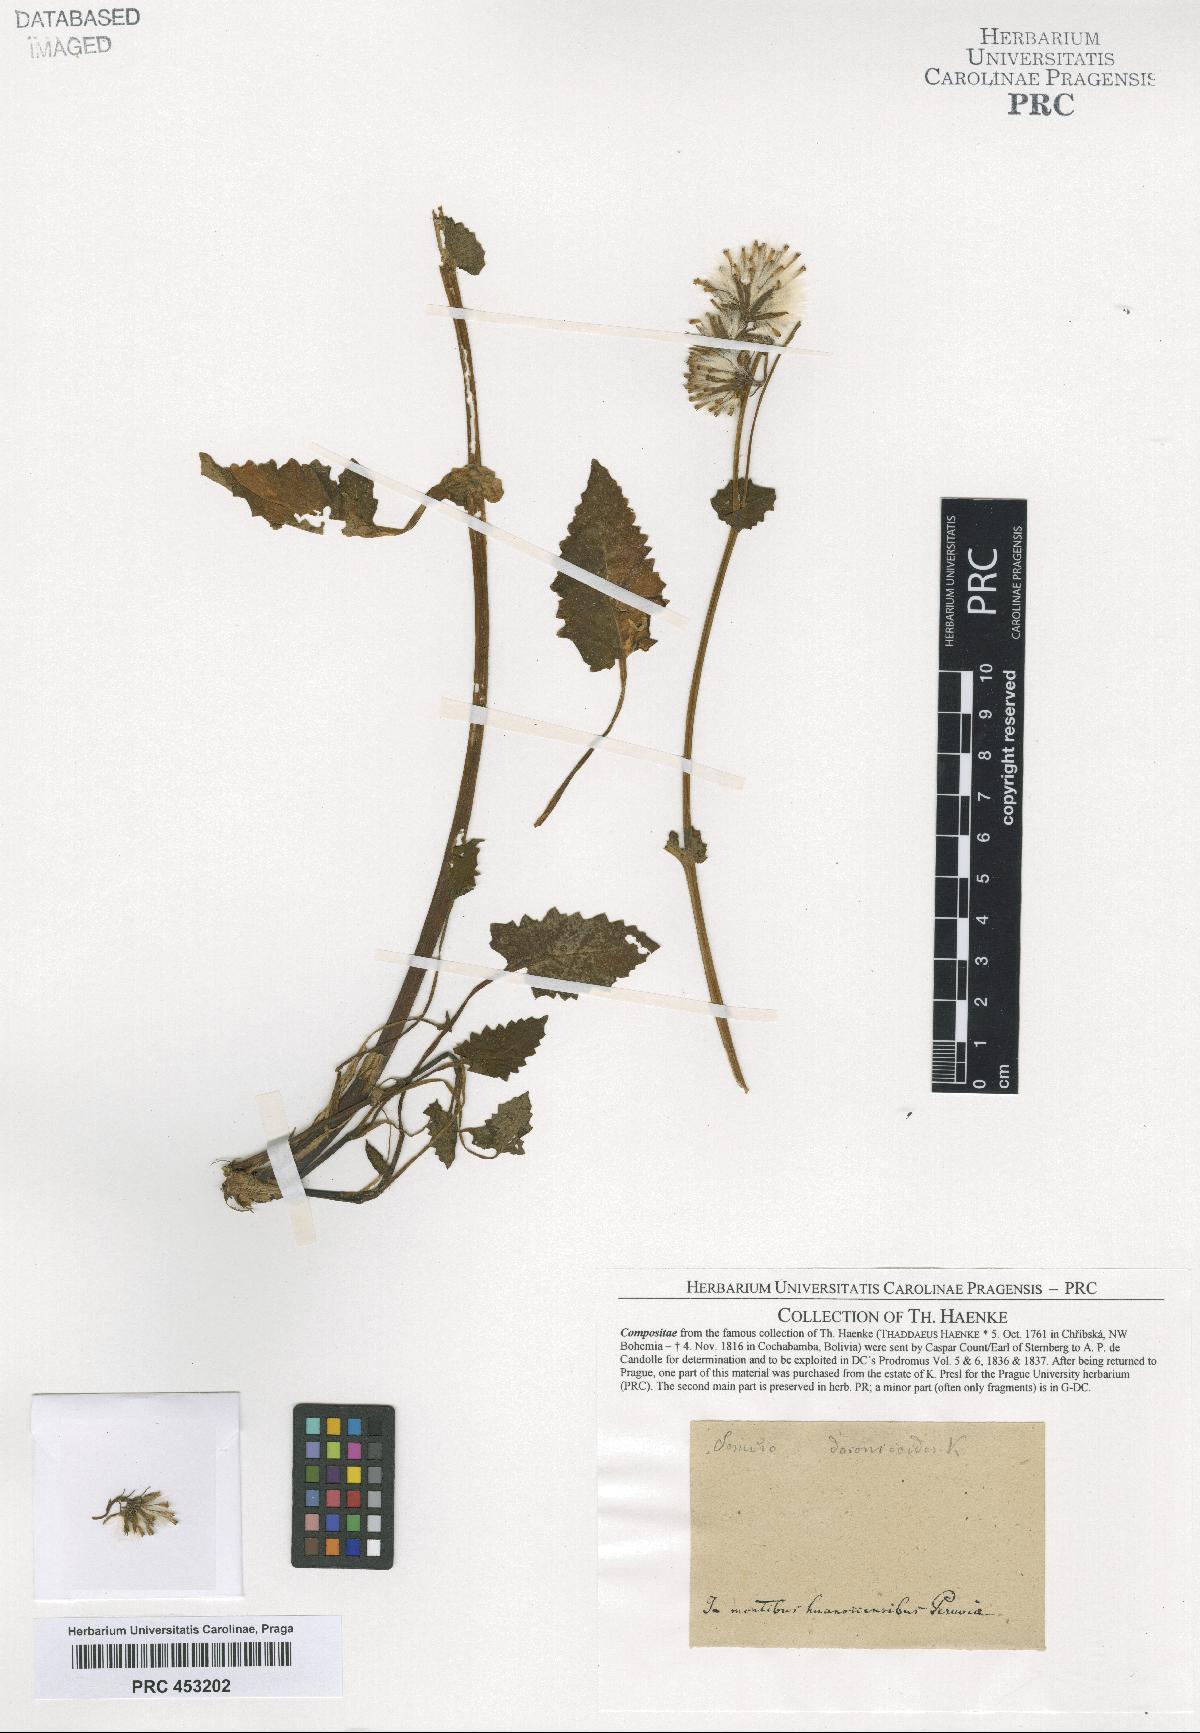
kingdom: Plantae
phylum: Tracheophyta
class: Magnoliopsida
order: Asterales
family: Asteraceae
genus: Senecio
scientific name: Senecio
